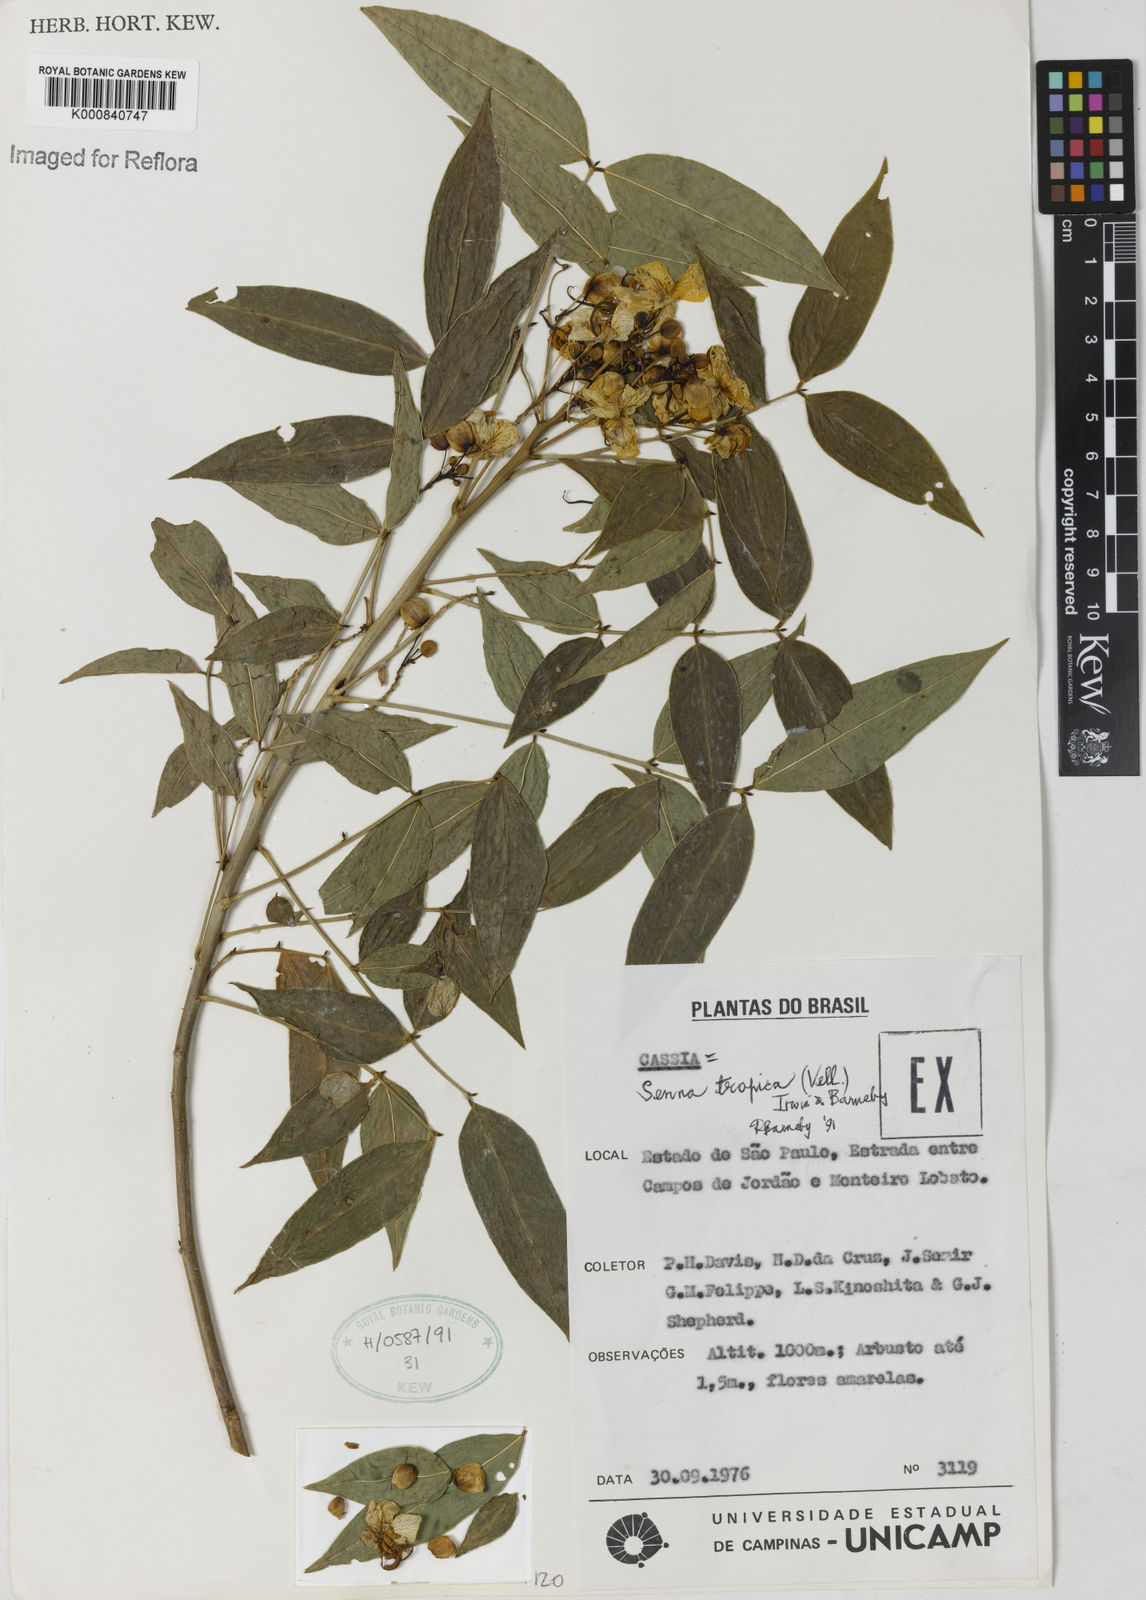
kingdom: Plantae
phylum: Tracheophyta
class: Magnoliopsida
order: Fabales
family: Fabaceae
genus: Senna
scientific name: Senna tropica
